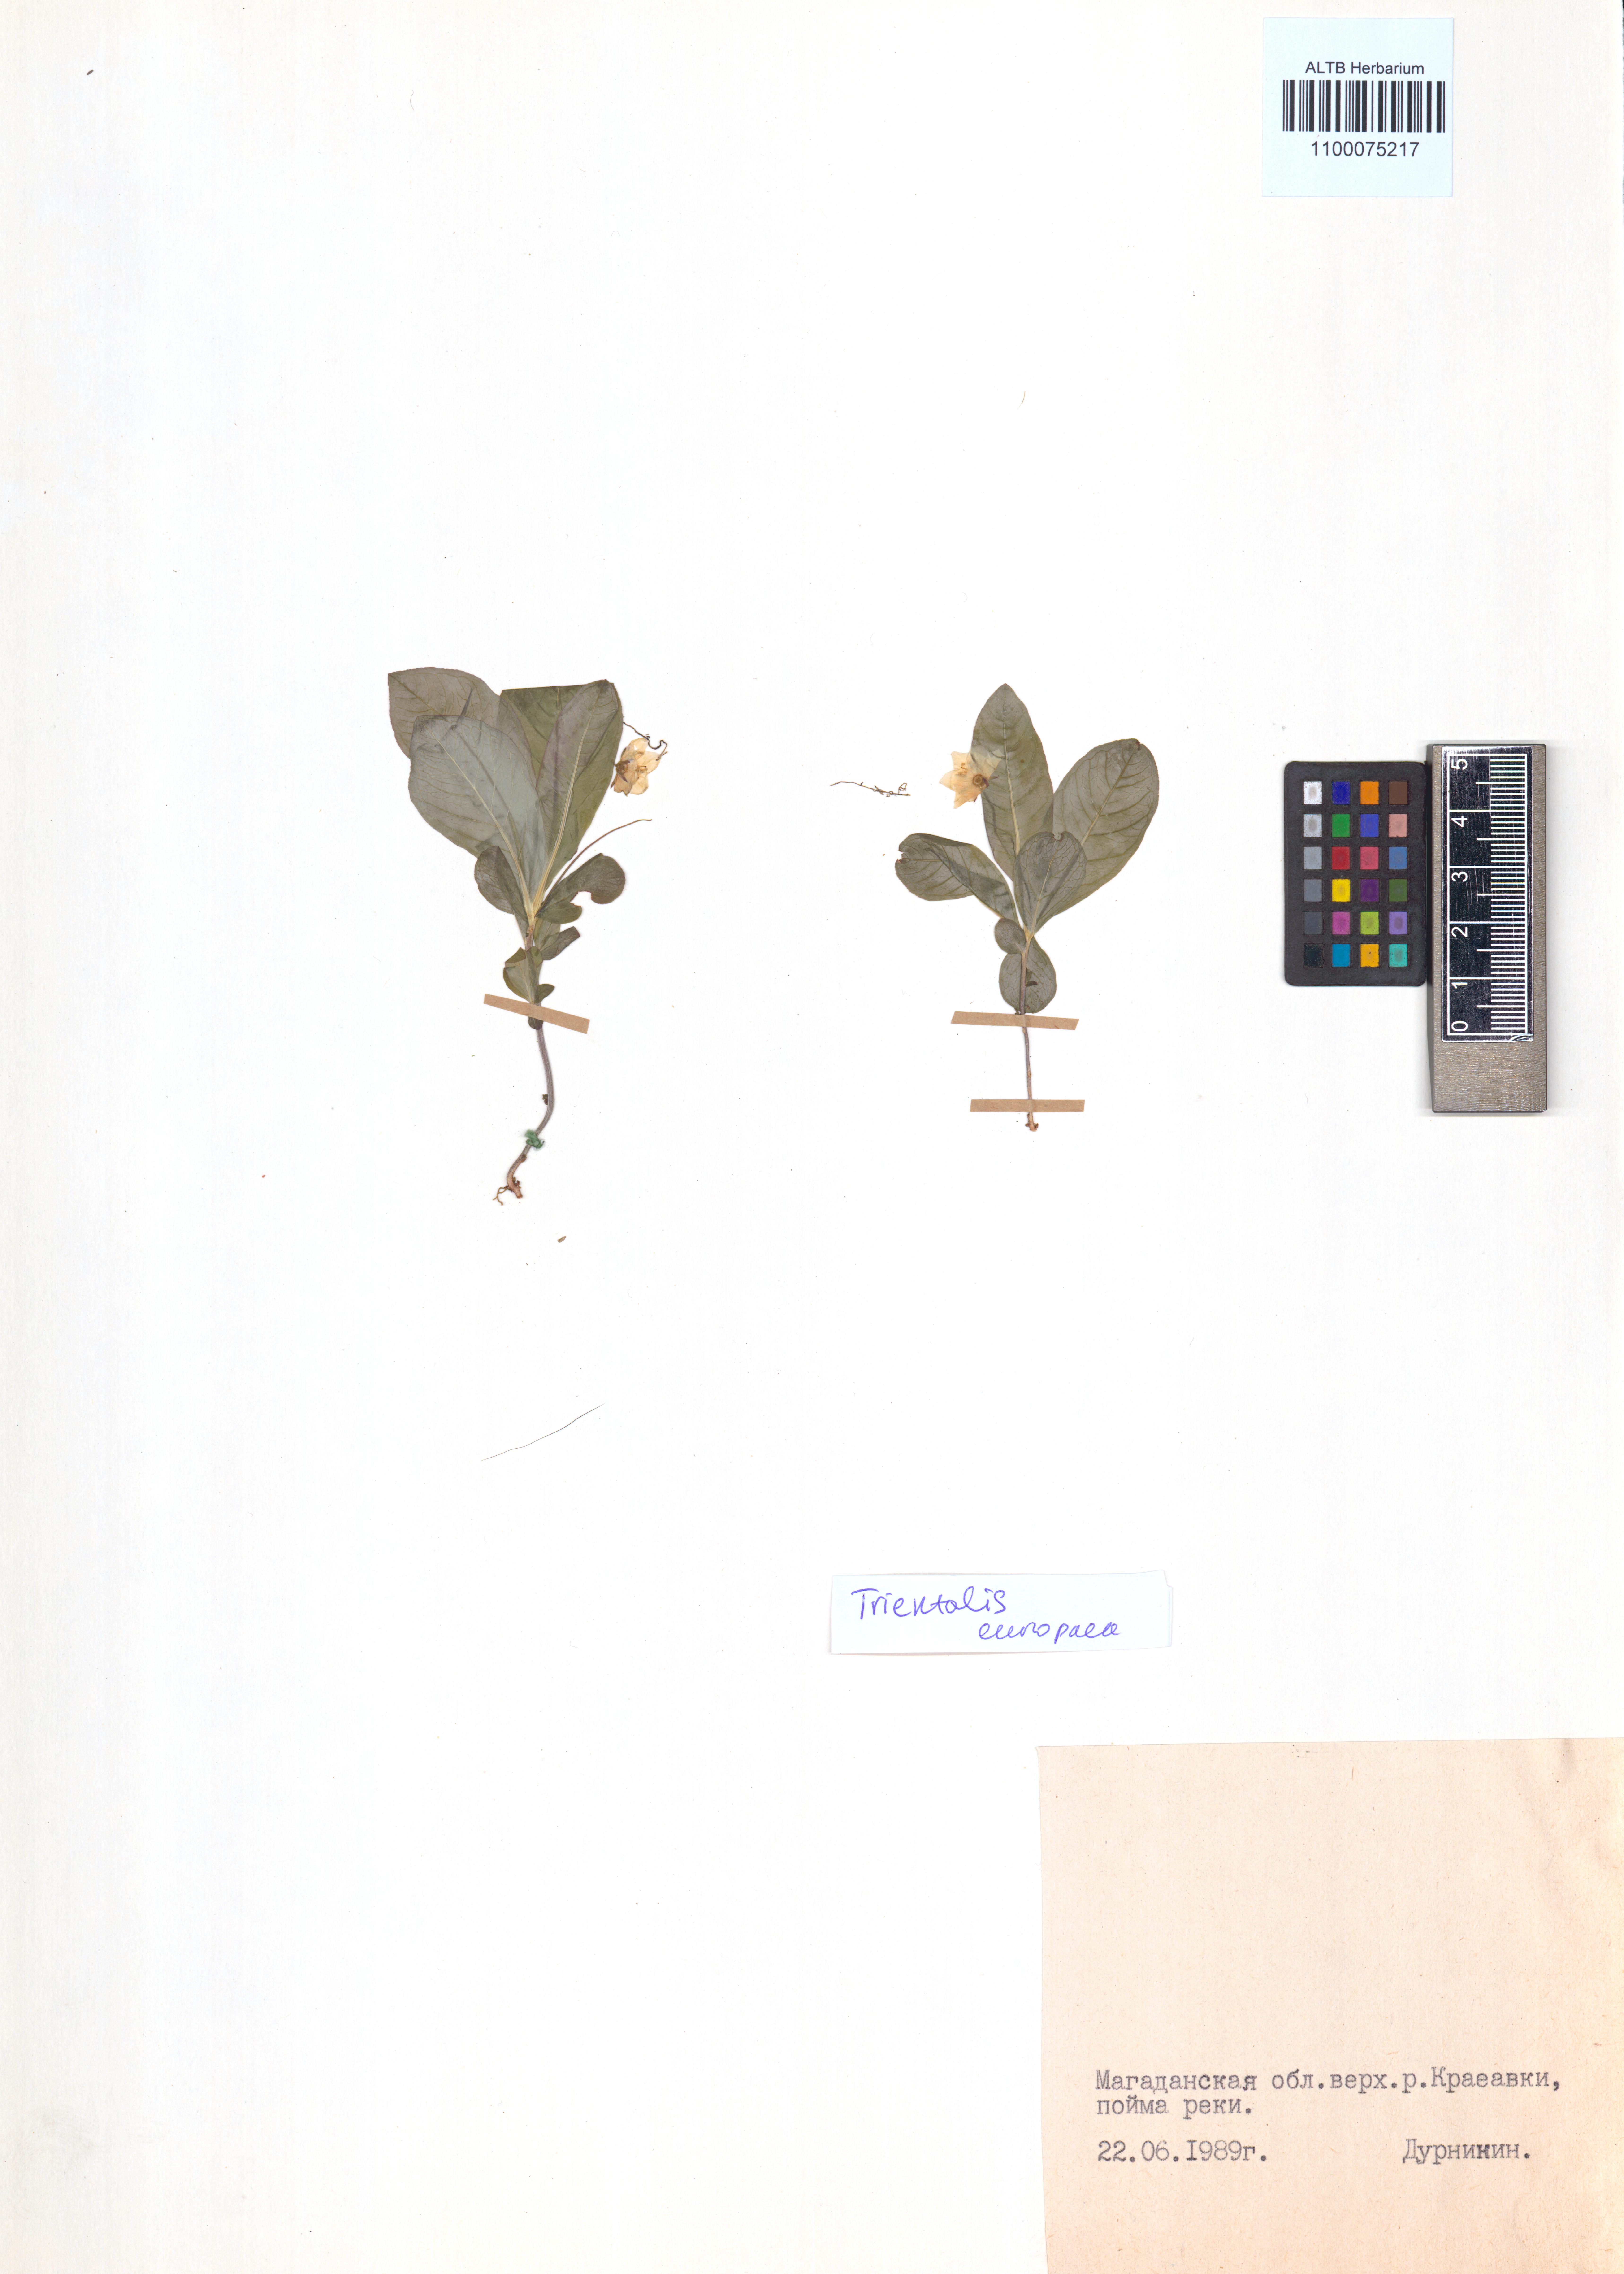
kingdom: Plantae
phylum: Tracheophyta
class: Magnoliopsida
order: Ericales
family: Primulaceae
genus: Lysimachia
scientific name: Lysimachia europaea
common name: Arctic starflower
